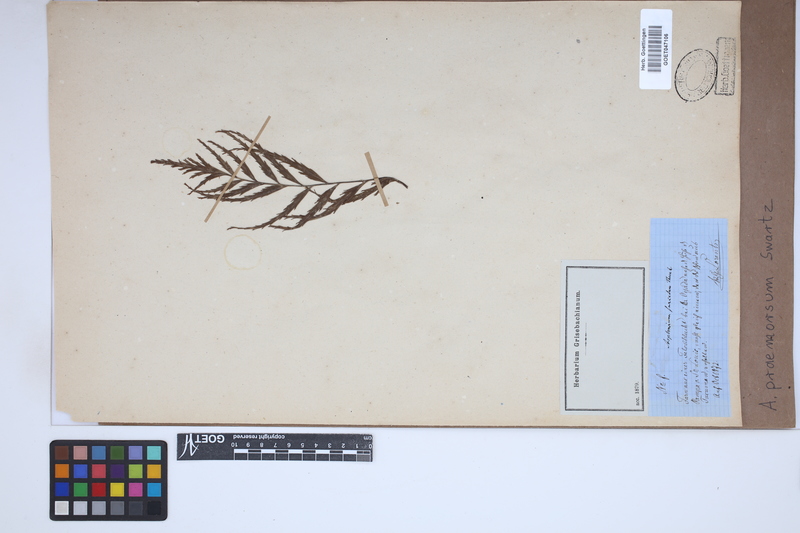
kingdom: Plantae
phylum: Tracheophyta
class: Polypodiopsida
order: Polypodiales
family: Aspleniaceae
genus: Asplenium
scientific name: Asplenium praemorsum
